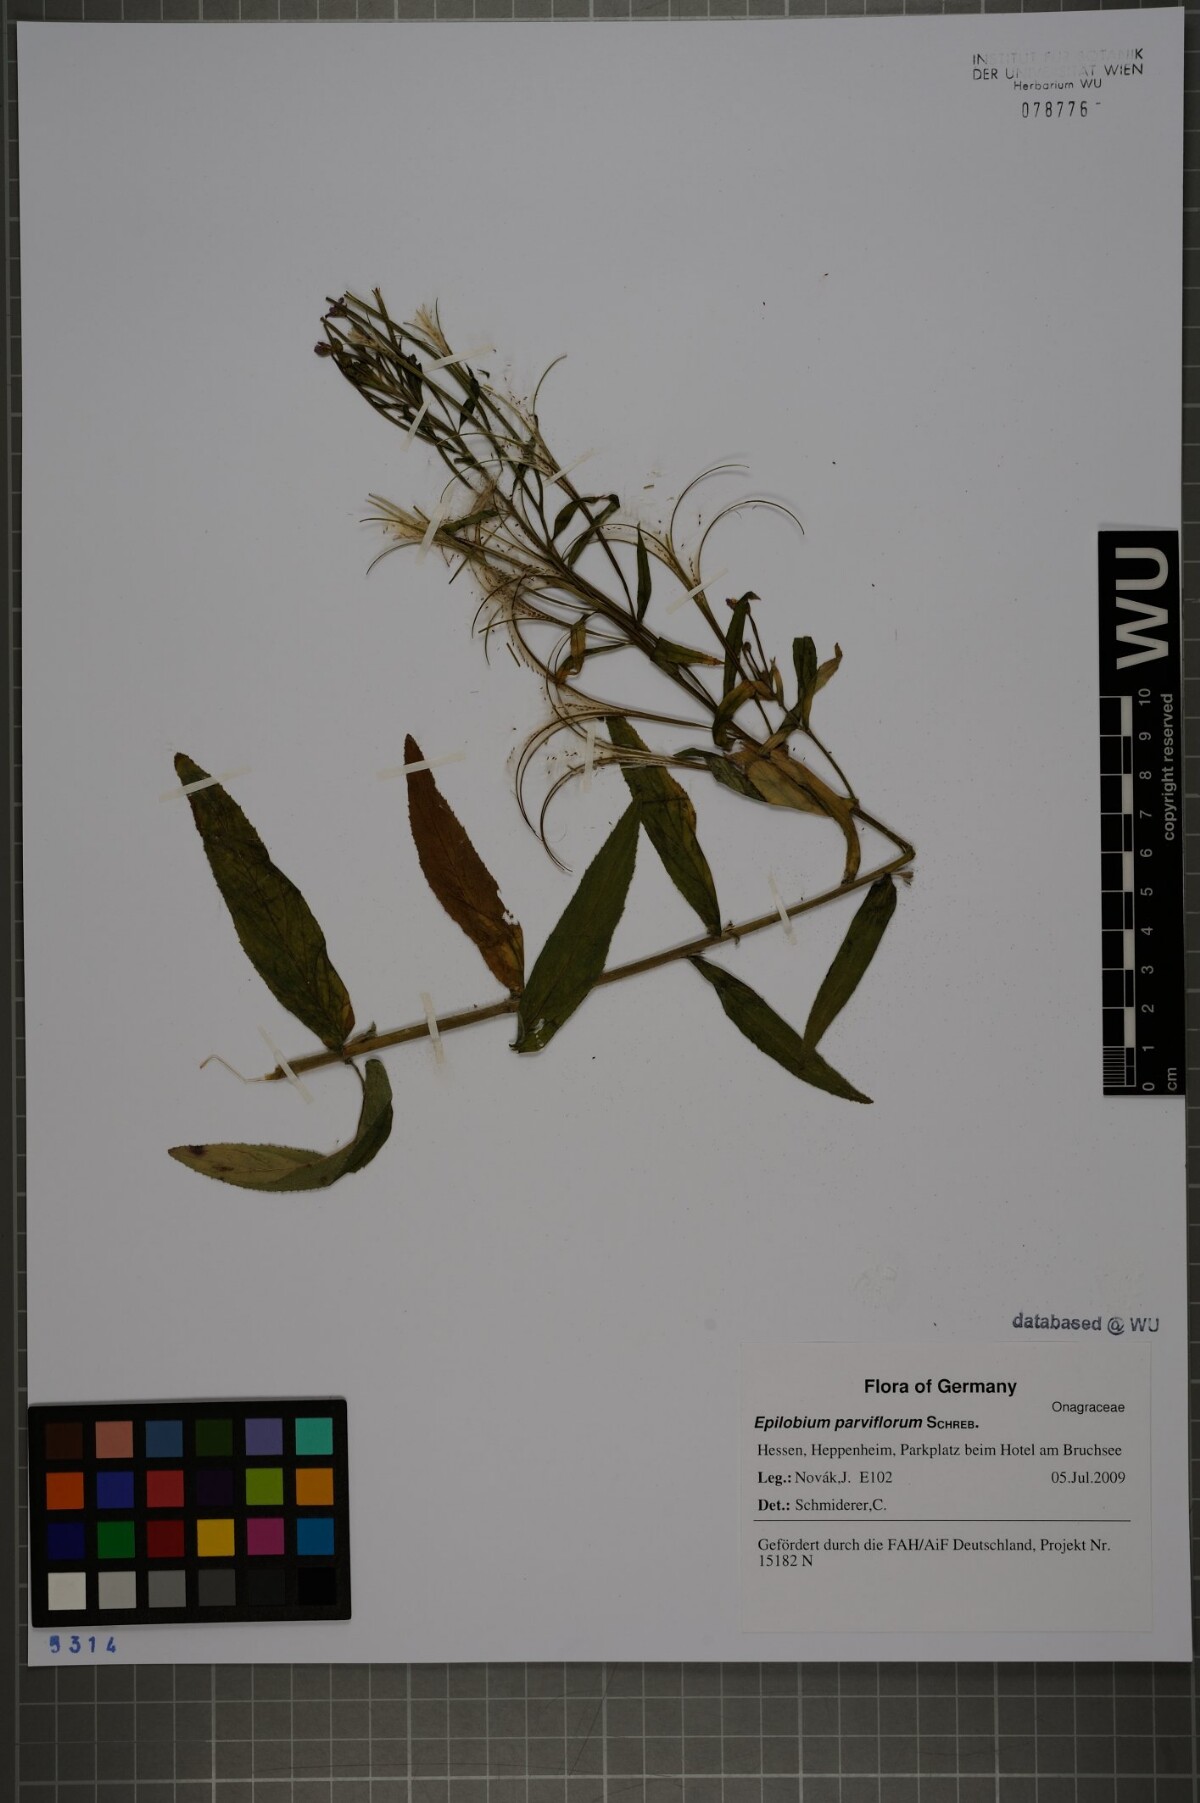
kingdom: Plantae
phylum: Tracheophyta
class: Magnoliopsida
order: Myrtales
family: Onagraceae
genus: Epilobium
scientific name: Epilobium parviflorum
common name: Hoary willowherb
